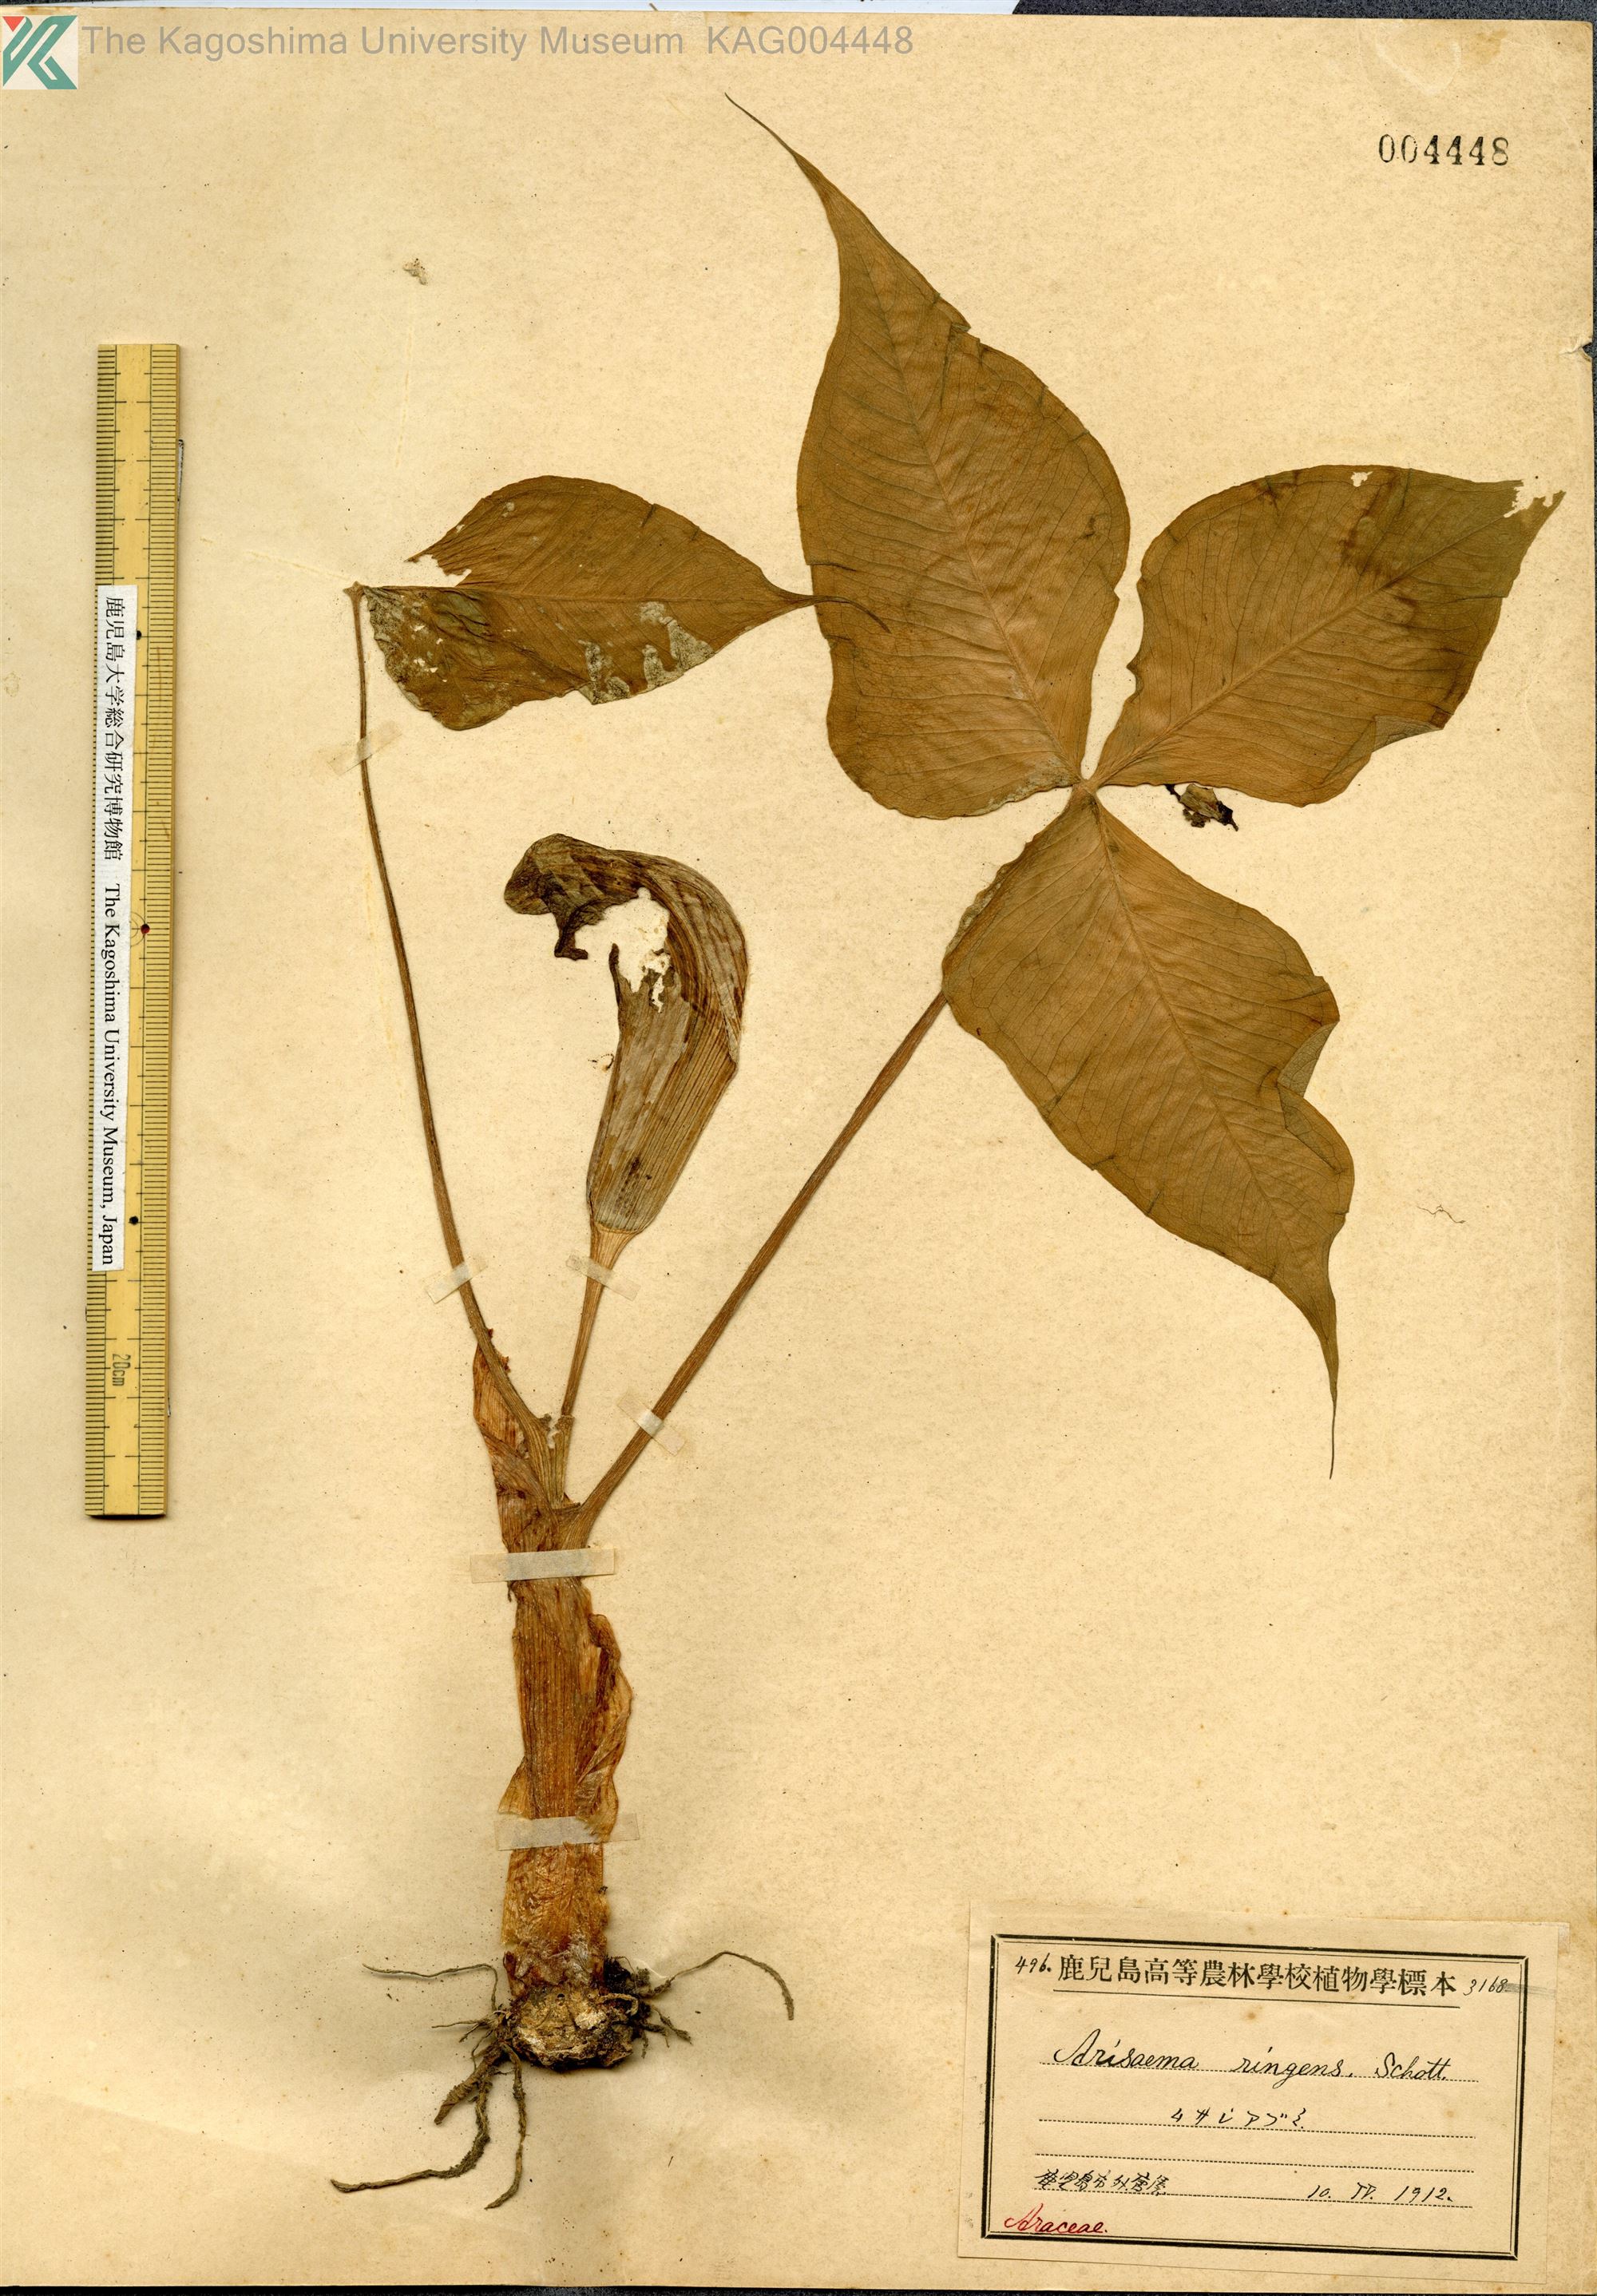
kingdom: Plantae
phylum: Tracheophyta
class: Liliopsida
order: Alismatales
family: Araceae
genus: Arisaema
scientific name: Arisaema ringens
